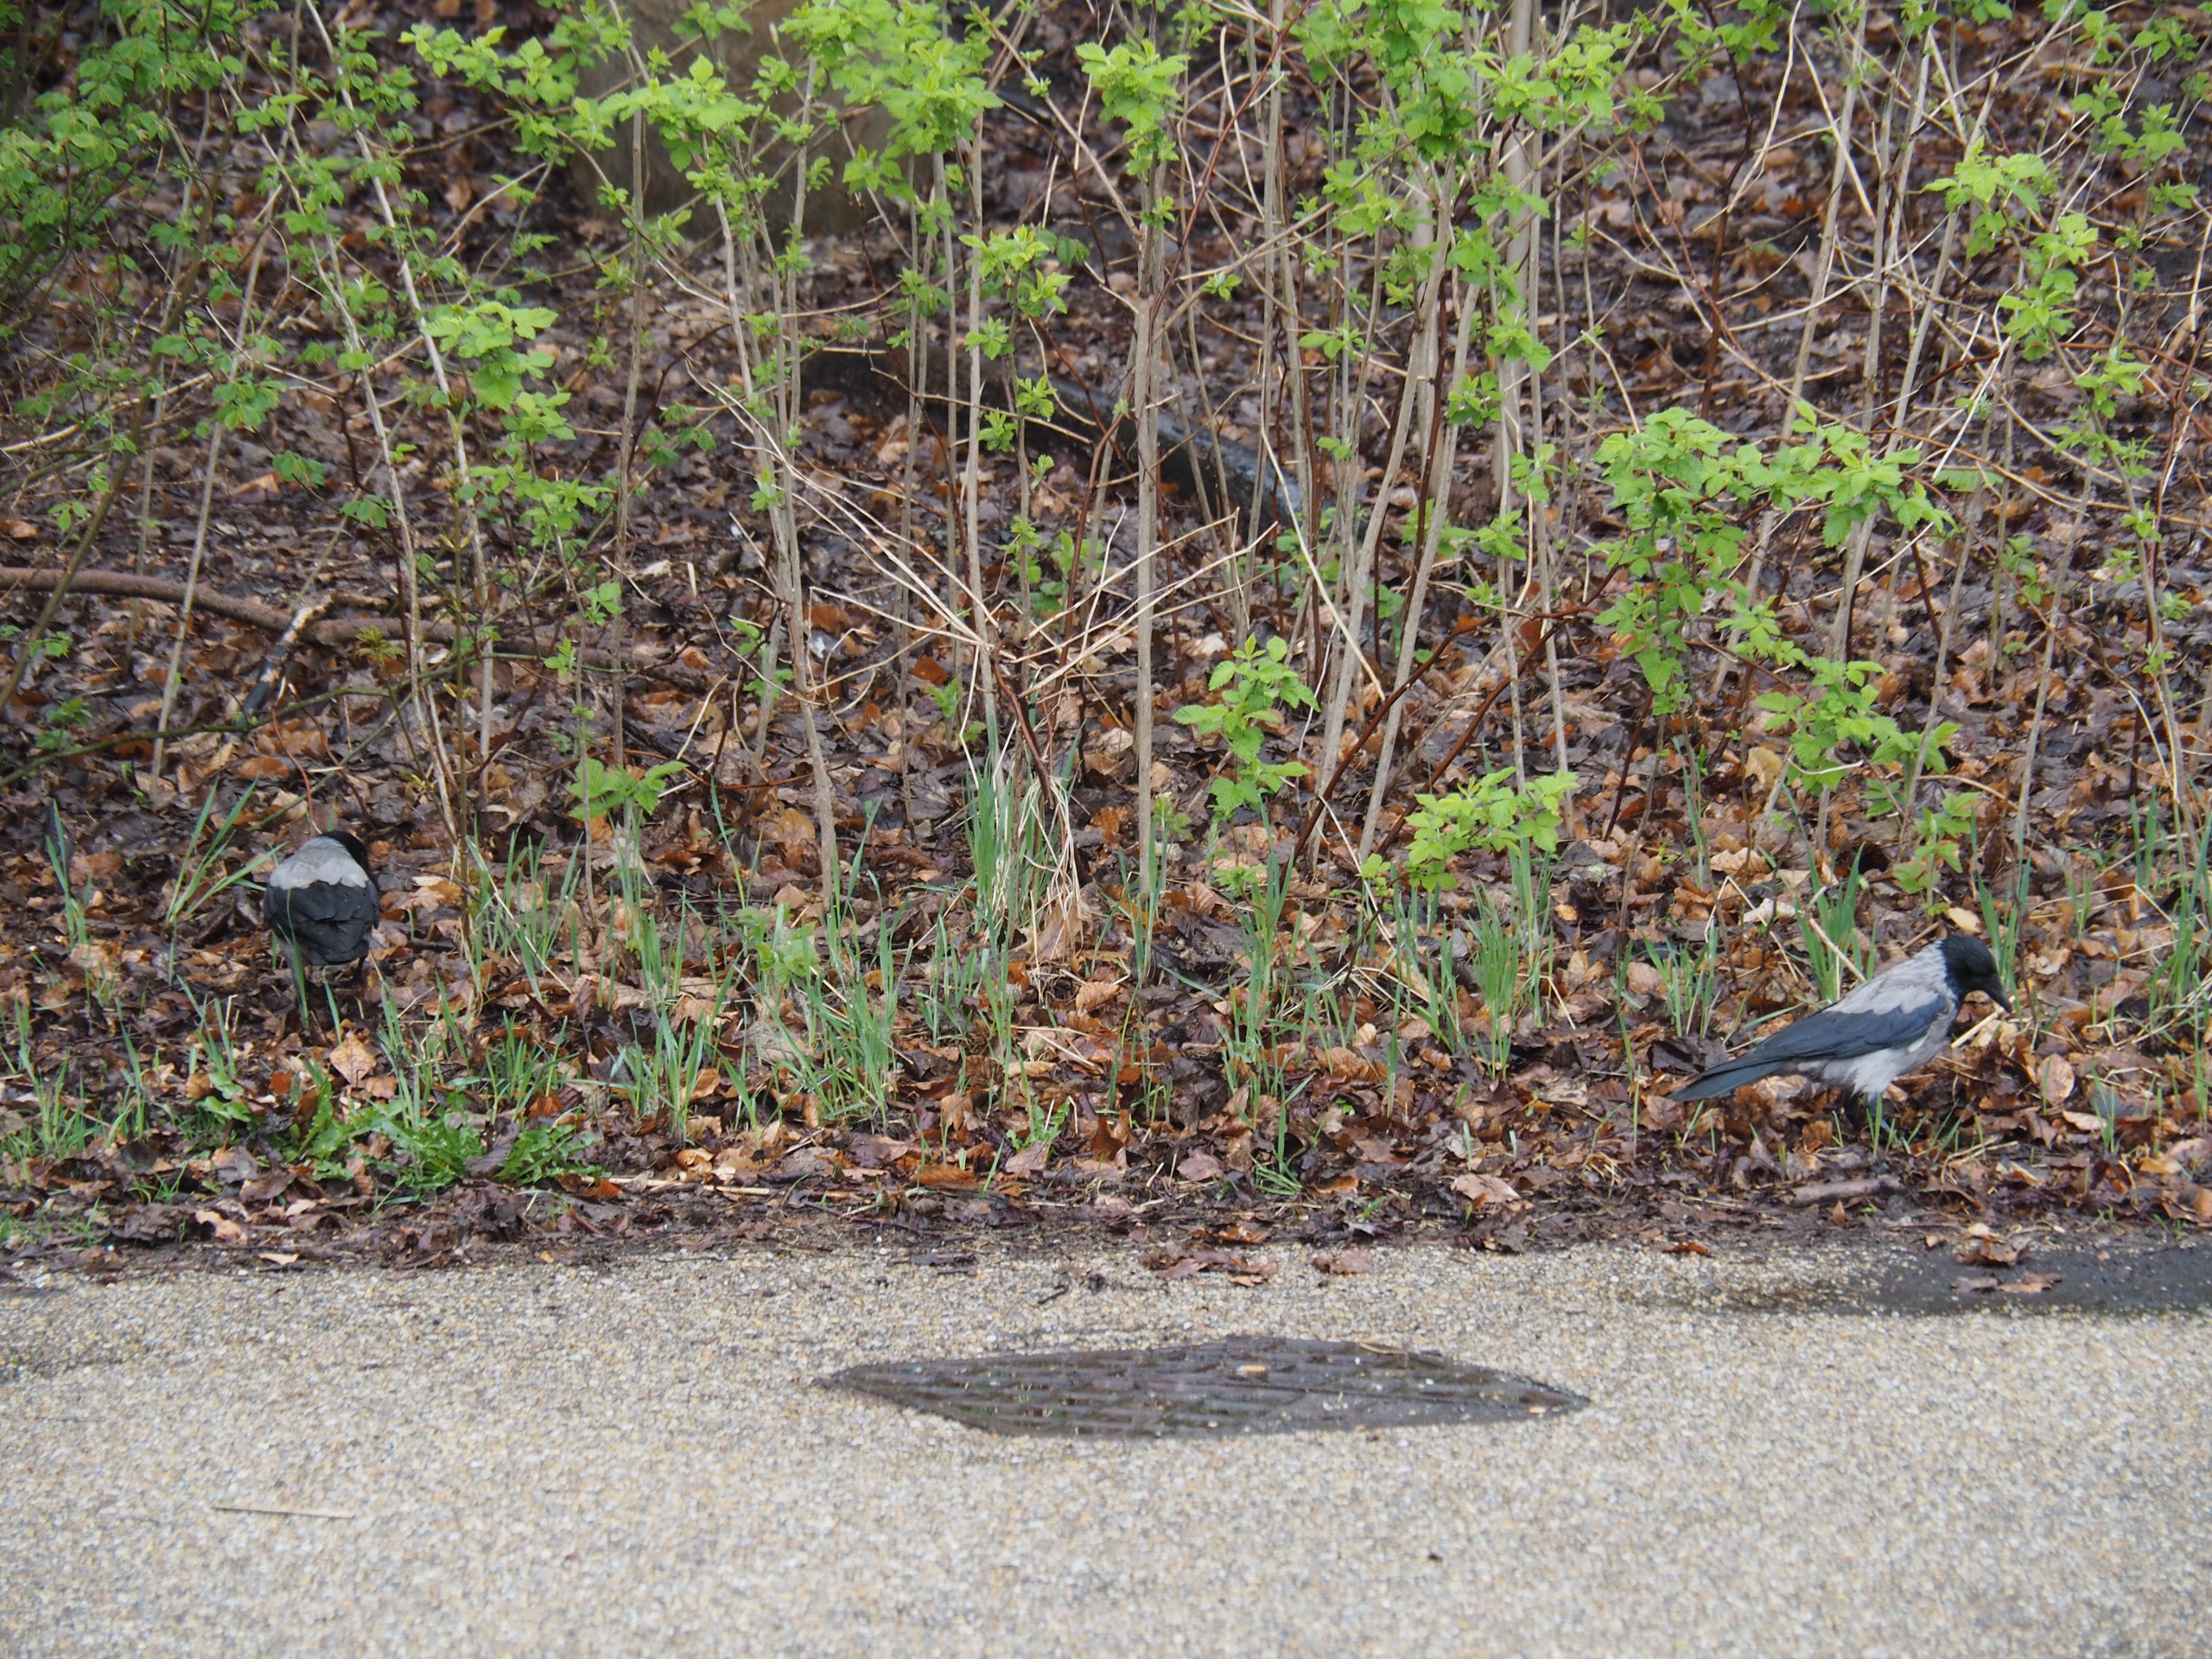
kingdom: Animalia
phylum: Chordata
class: Aves
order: Passeriformes
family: Corvidae
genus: Corvus
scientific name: Corvus cornix
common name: Gråkrage
